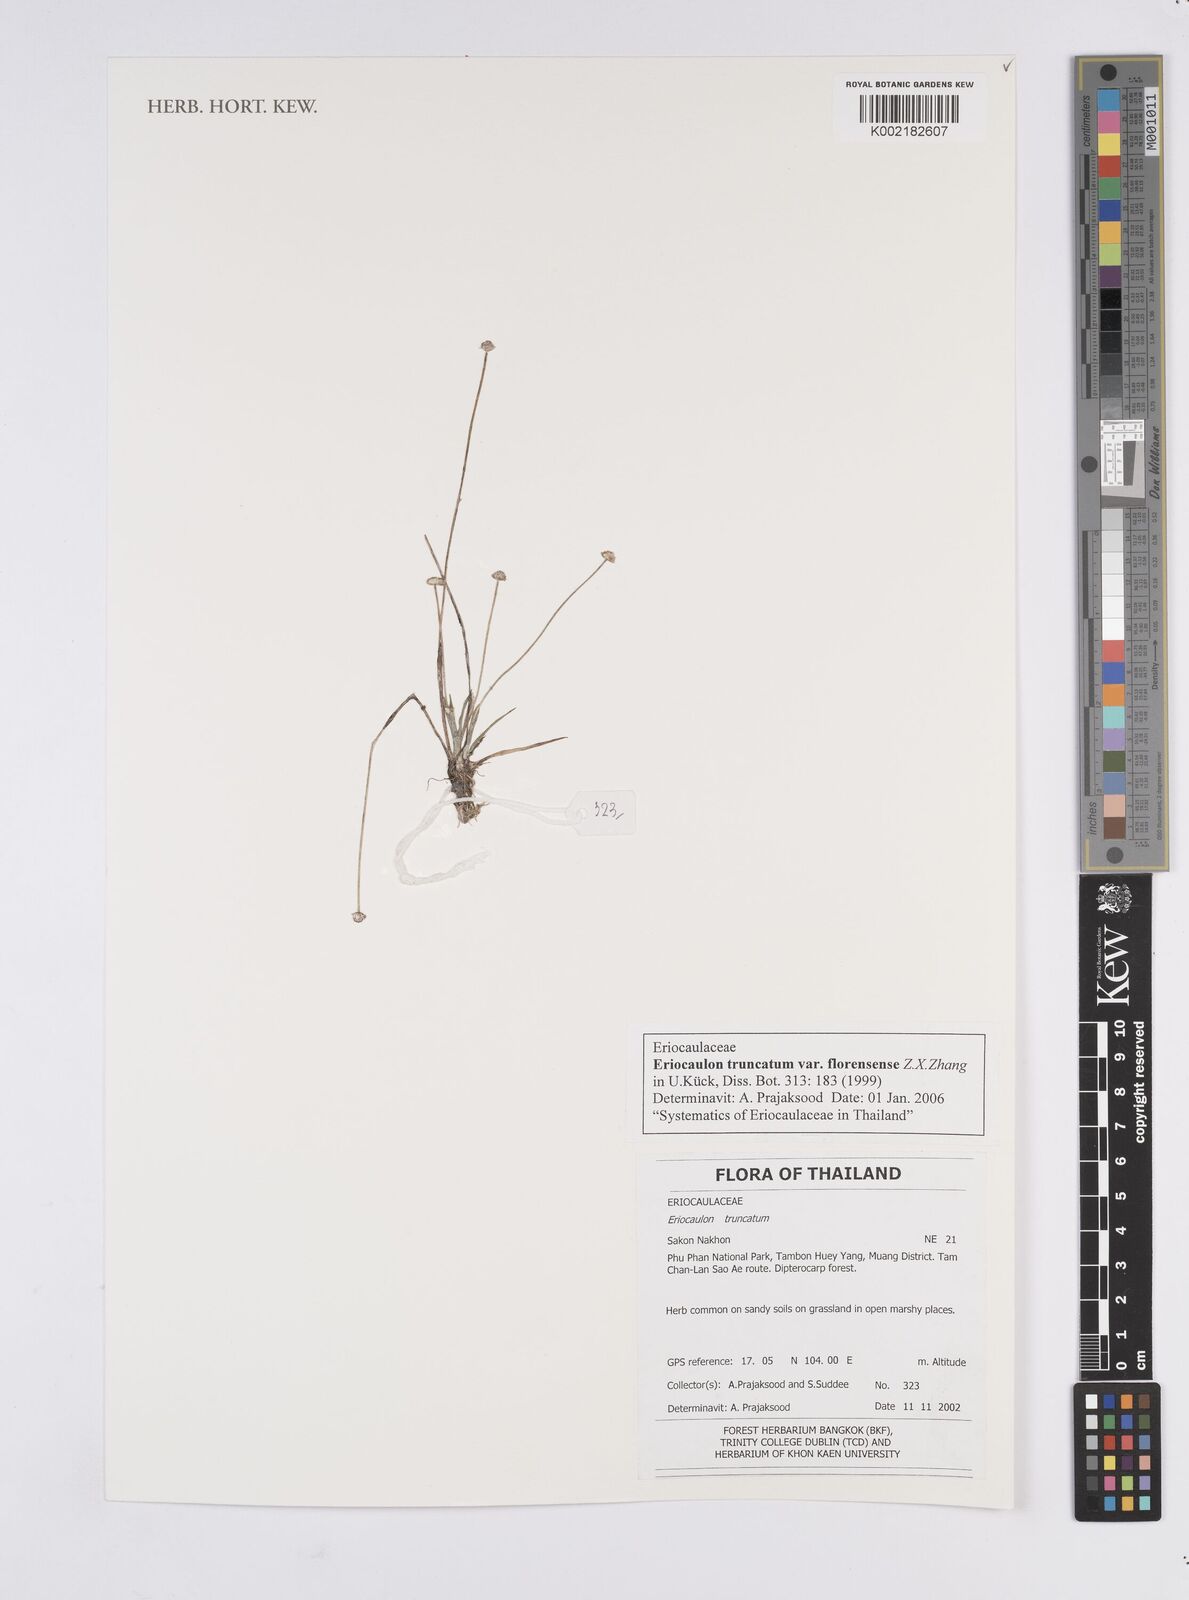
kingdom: Plantae
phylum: Tracheophyta
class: Liliopsida
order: Poales
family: Eriocaulaceae
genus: Eriocaulon
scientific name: Eriocaulon truncatum
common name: Short pipe-wort
